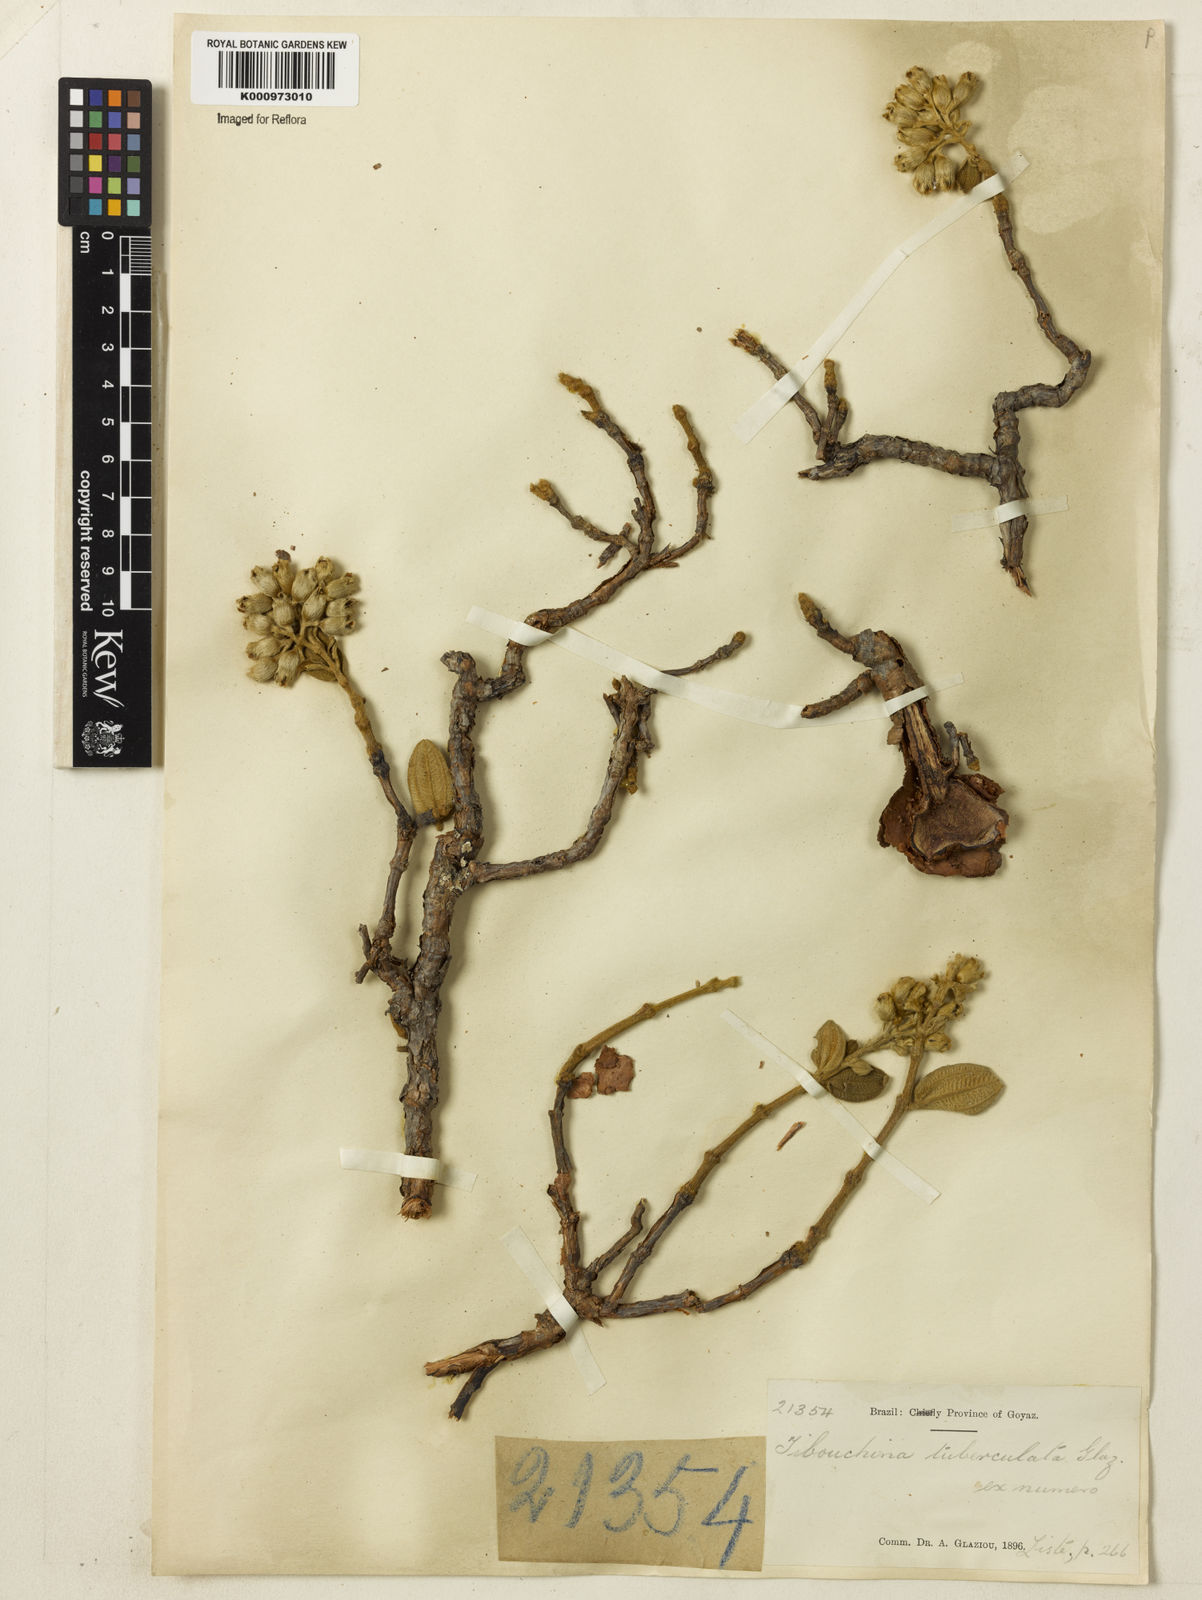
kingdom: Plantae
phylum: Tracheophyta
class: Magnoliopsida
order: Myrtales
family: Melastomataceae
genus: Tibouchina
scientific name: Tibouchina tuberculata
